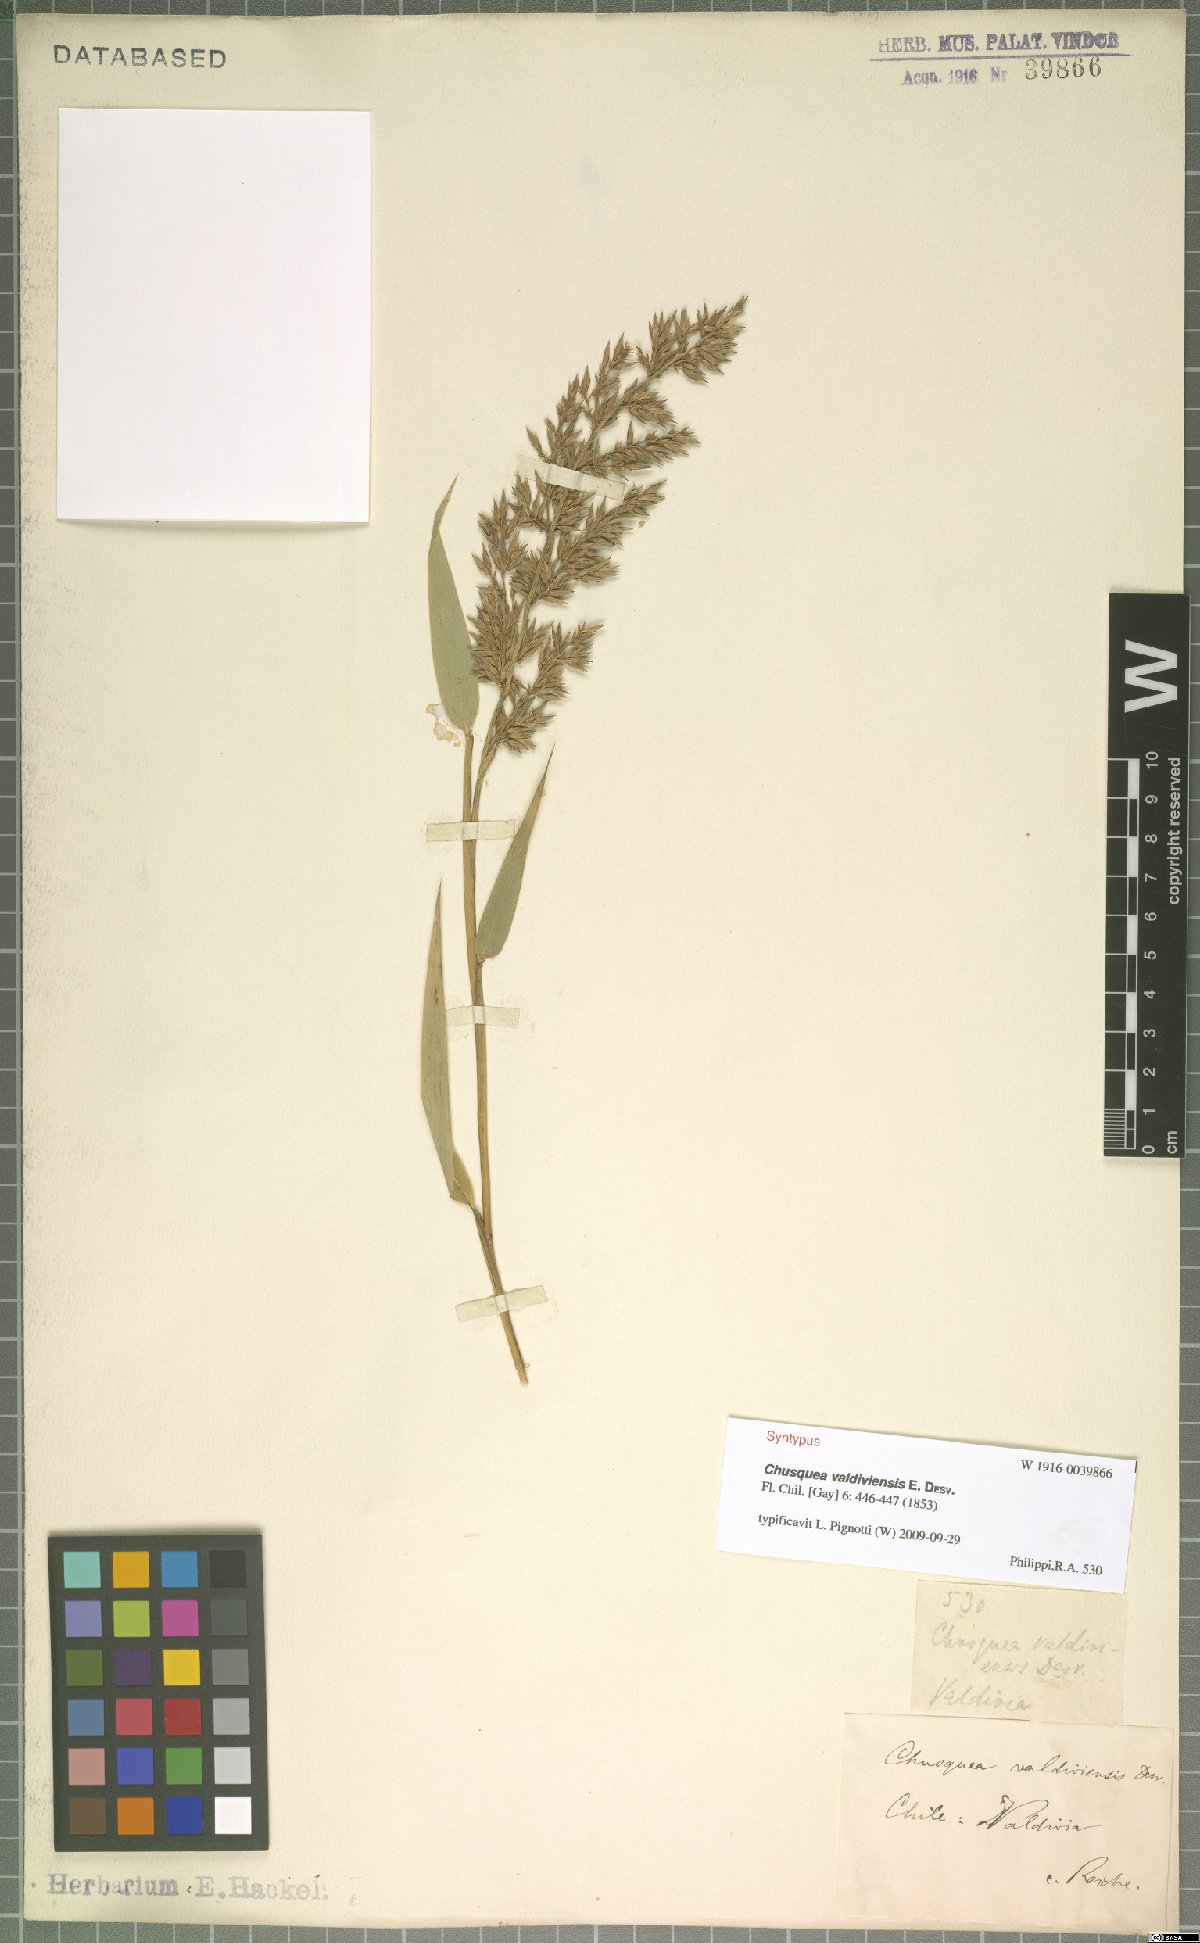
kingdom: Plantae
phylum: Tracheophyta
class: Liliopsida
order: Poales
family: Poaceae
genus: Chusquea
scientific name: Chusquea valdiviensis
